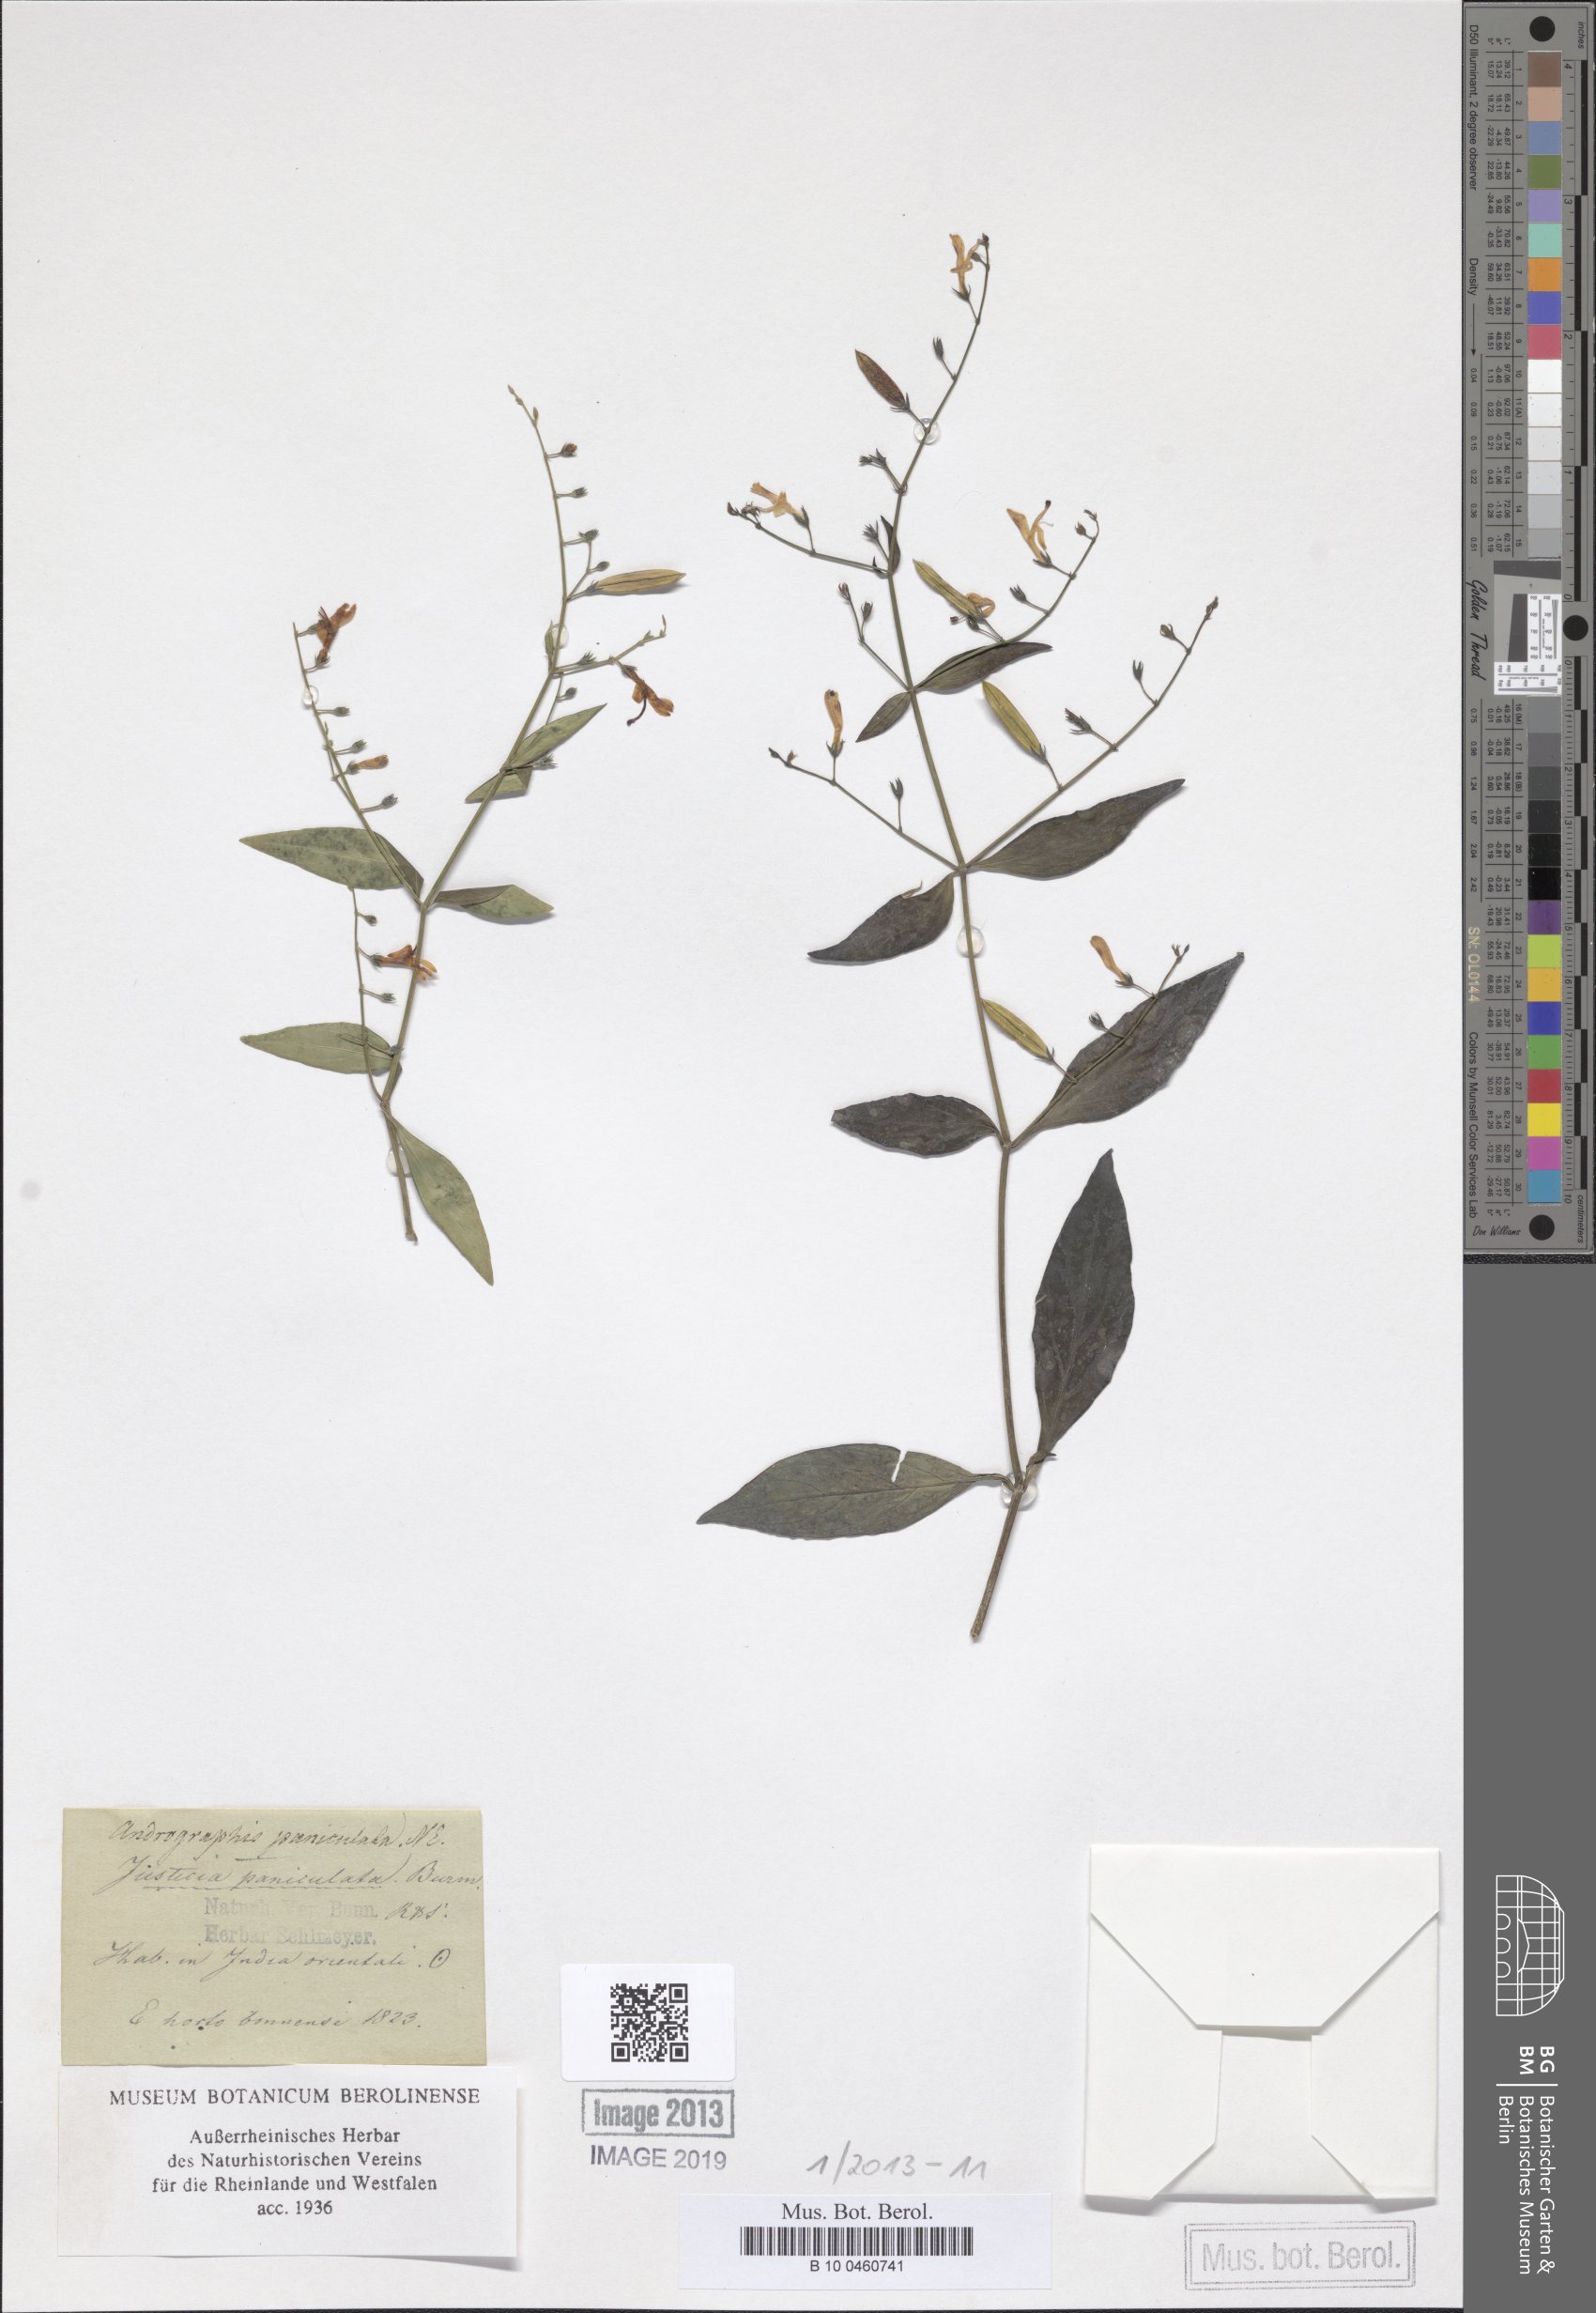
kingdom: Plantae
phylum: Tracheophyta
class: Magnoliopsida
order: Lamiales
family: Acanthaceae
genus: Andrographis
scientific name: Andrographis paniculata
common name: Green chireta
